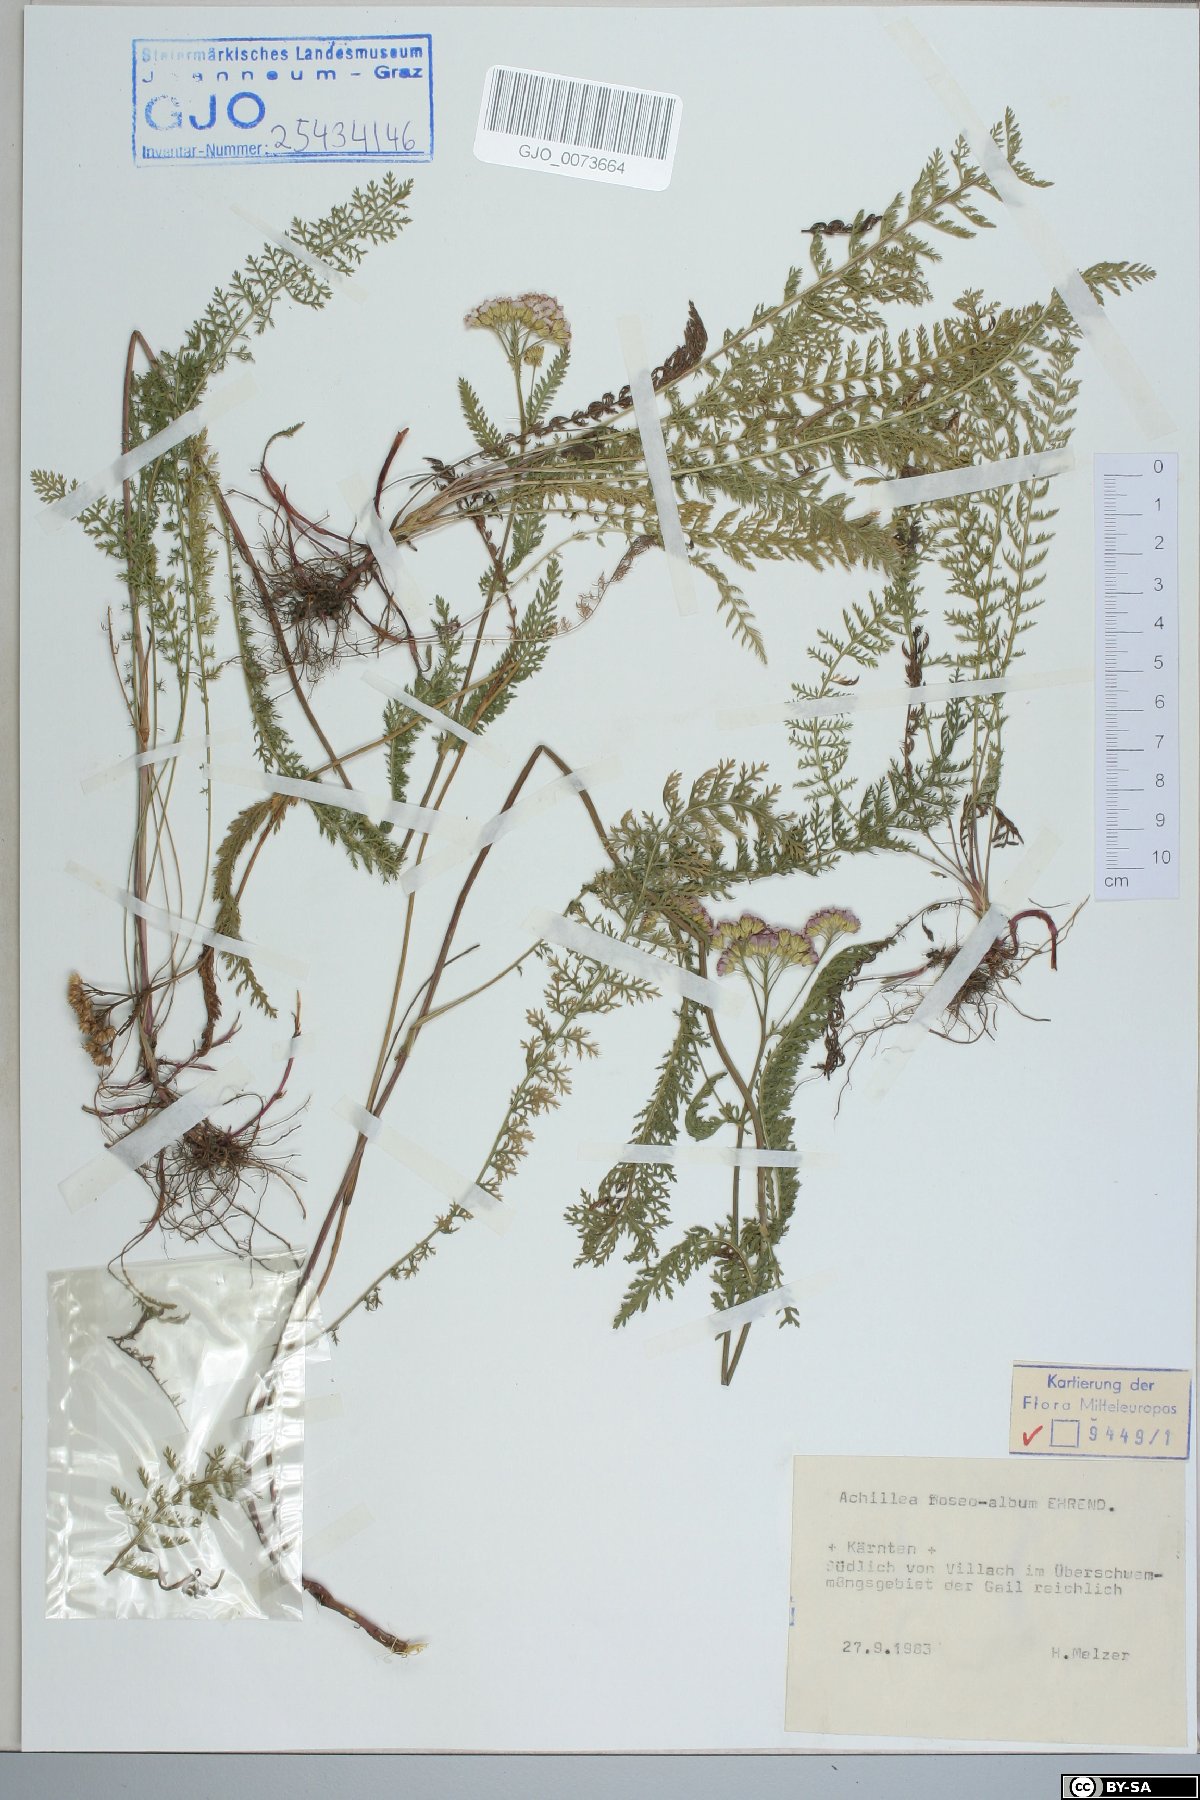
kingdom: Plantae
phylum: Tracheophyta
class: Magnoliopsida
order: Asterales
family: Asteraceae
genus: Achillea
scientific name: Achillea roseoalba
